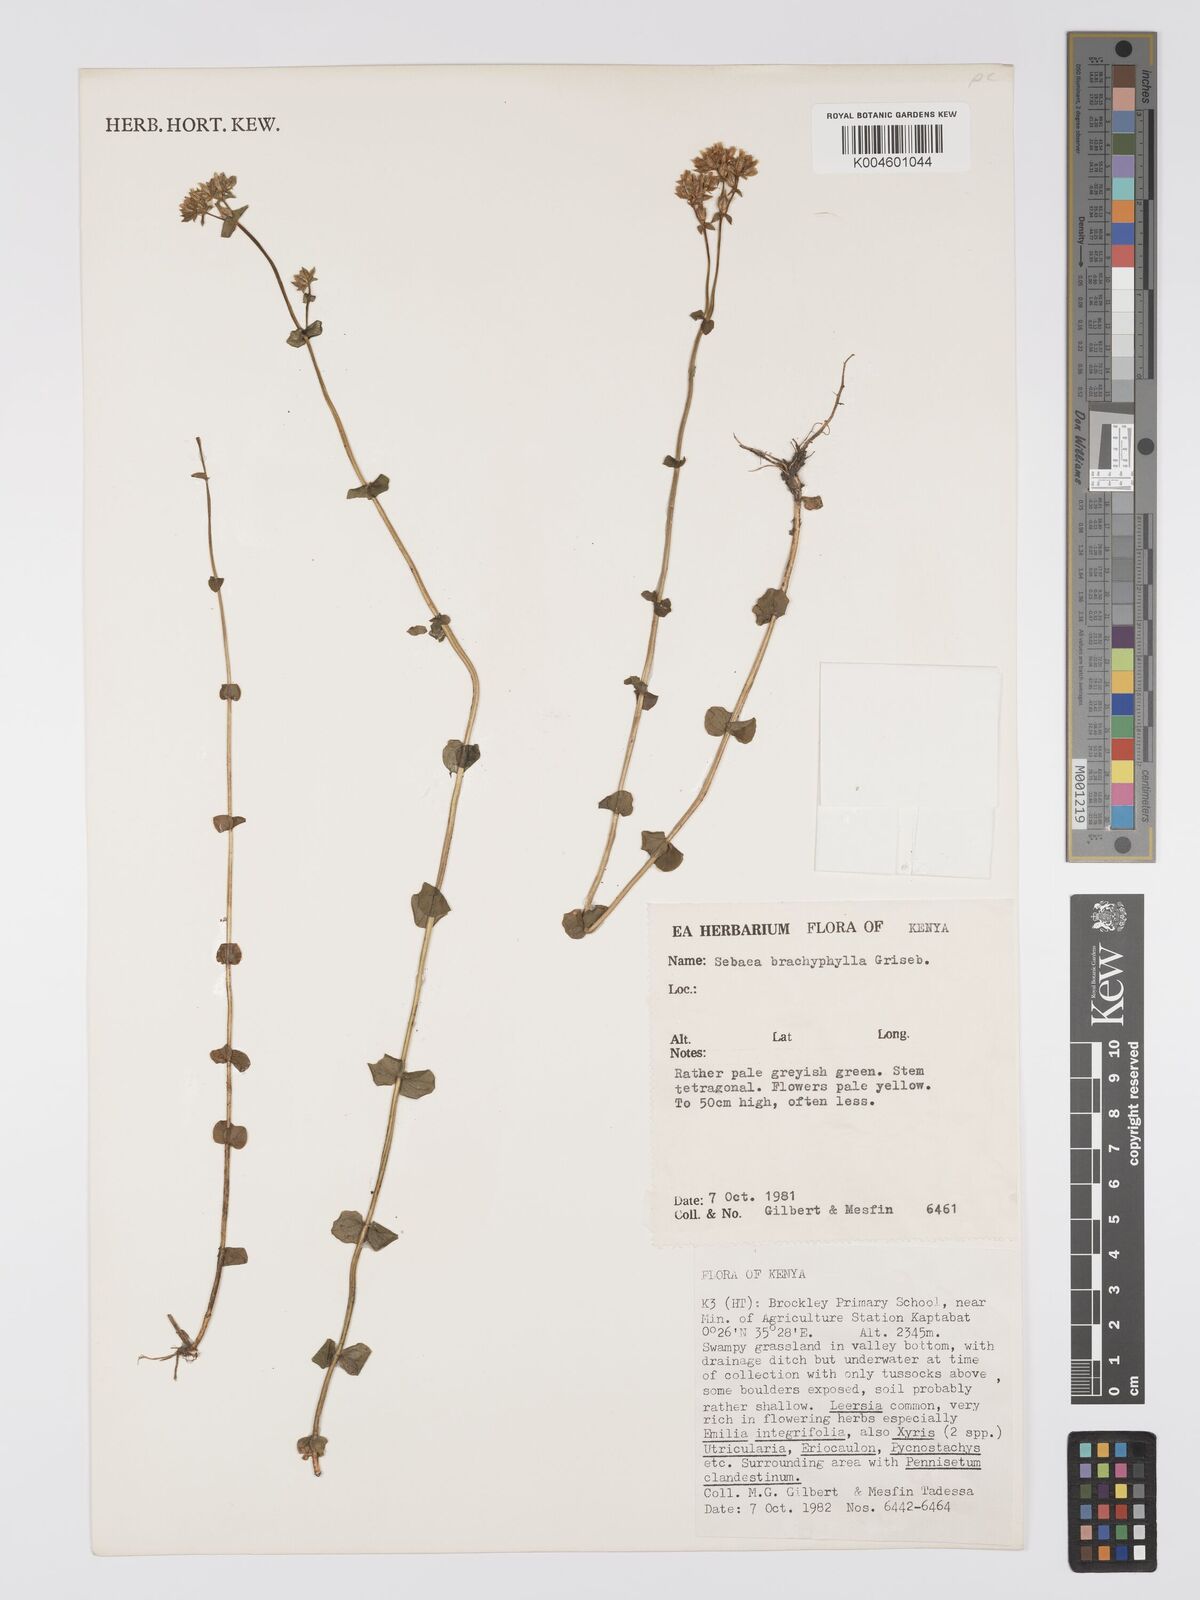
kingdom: Plantae
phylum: Tracheophyta
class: Magnoliopsida
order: Gentianales
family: Gentianaceae
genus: Sebaea
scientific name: Sebaea brachyphylla
